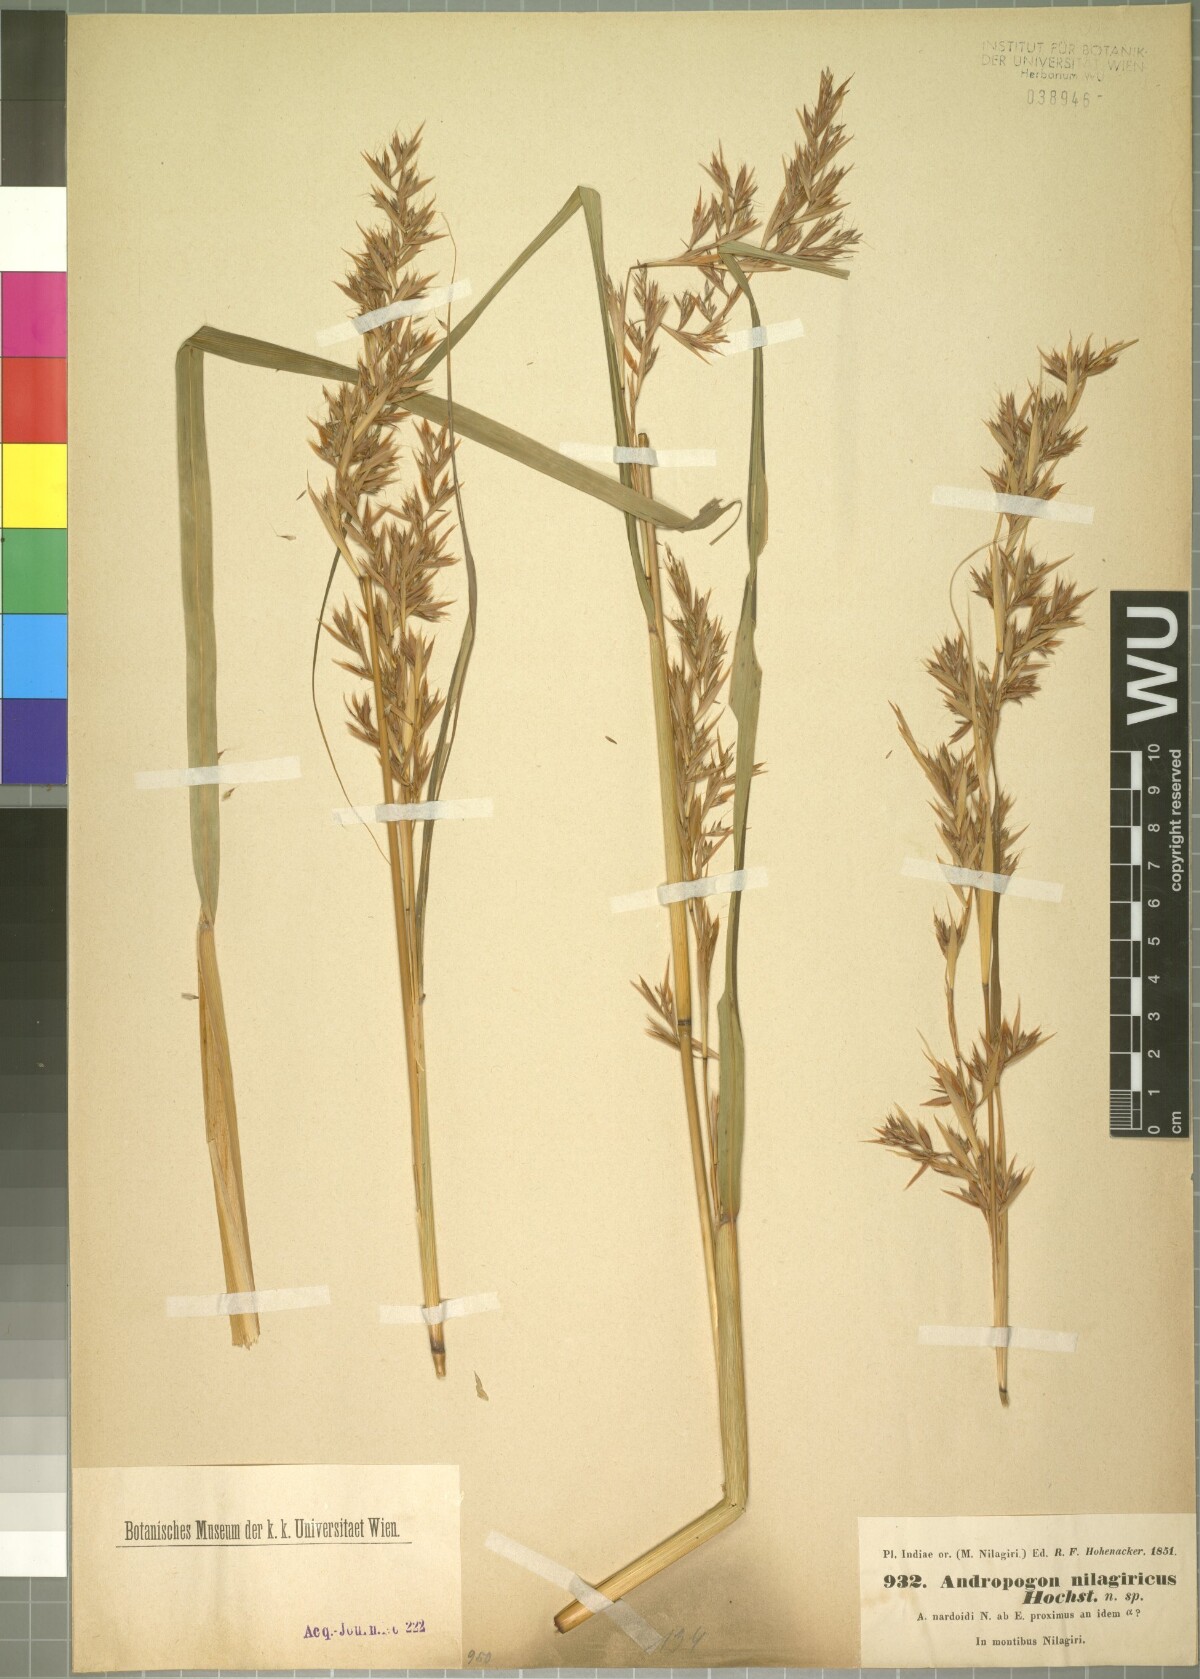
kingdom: Plantae
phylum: Tracheophyta
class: Liliopsida
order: Poales
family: Poaceae
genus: Cymbopogon
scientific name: Cymbopogon nardus
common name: Giant turpentine grass
